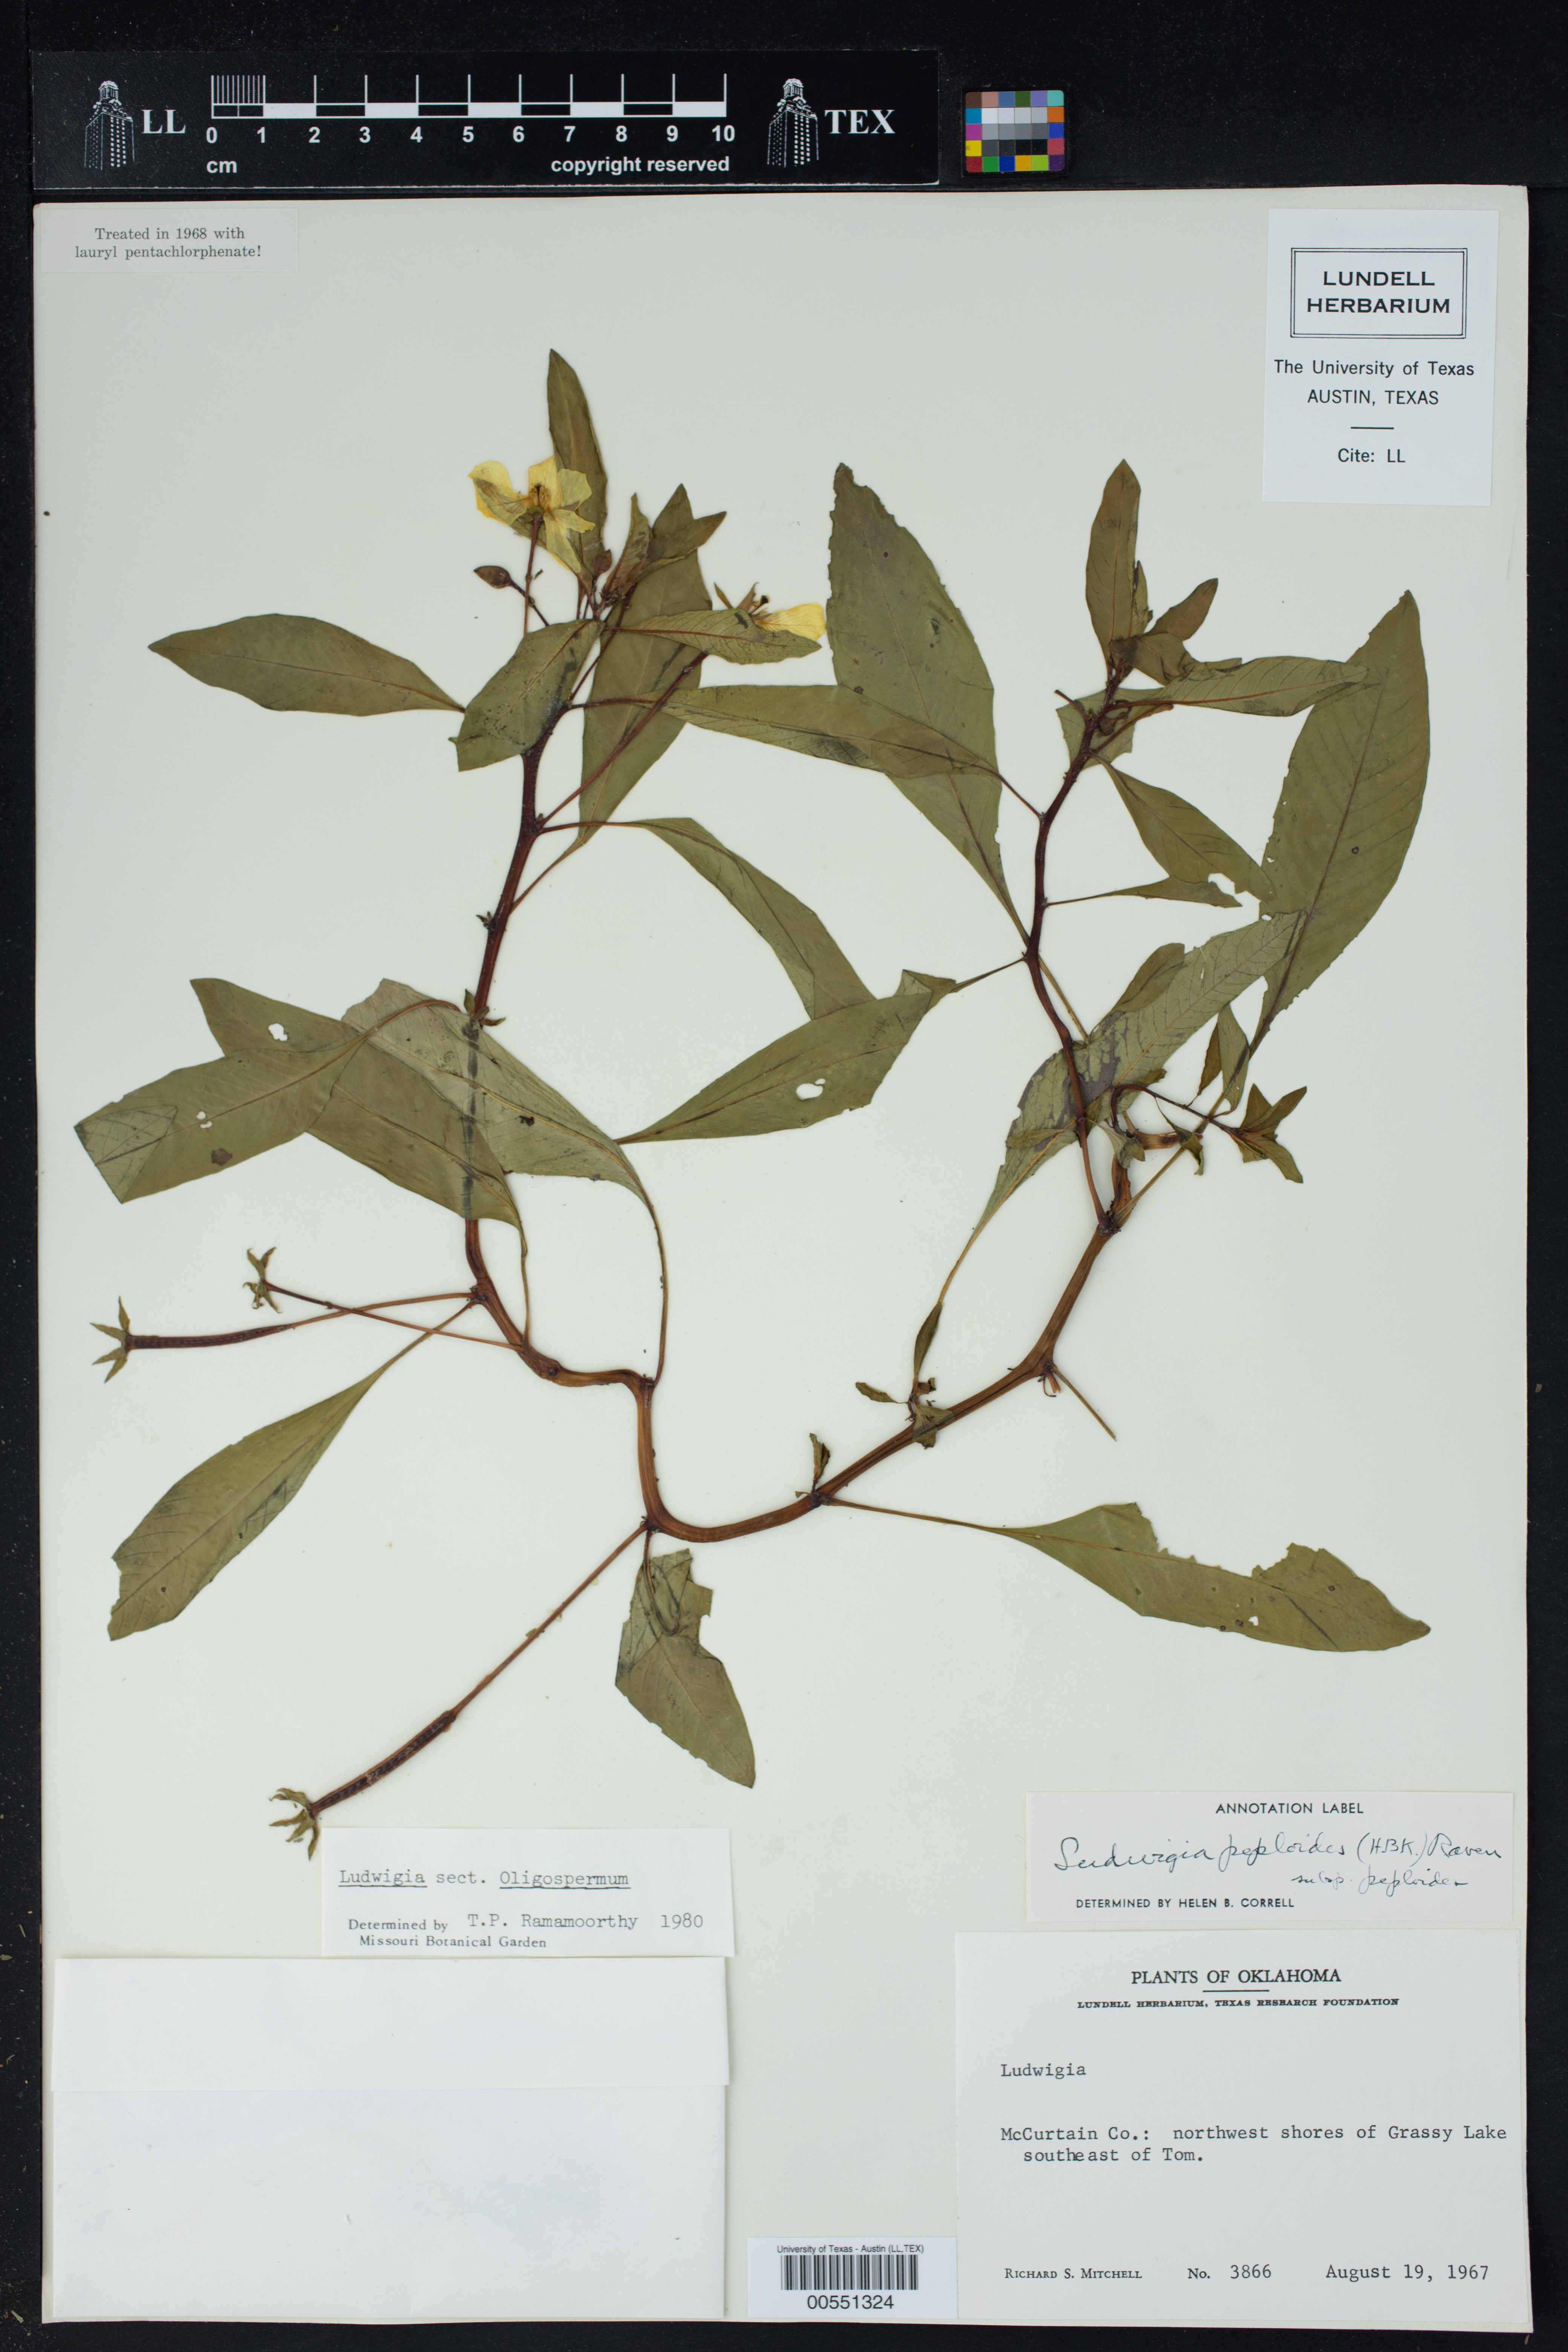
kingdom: Plantae
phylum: Tracheophyta
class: Magnoliopsida
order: Myrtales
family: Onagraceae
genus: Ludwigia
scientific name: Ludwigia
